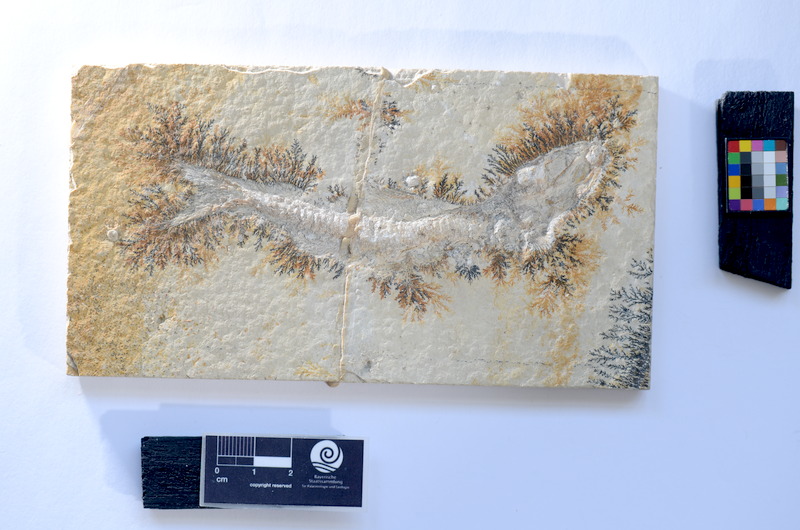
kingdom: Animalia
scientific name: Animalia
